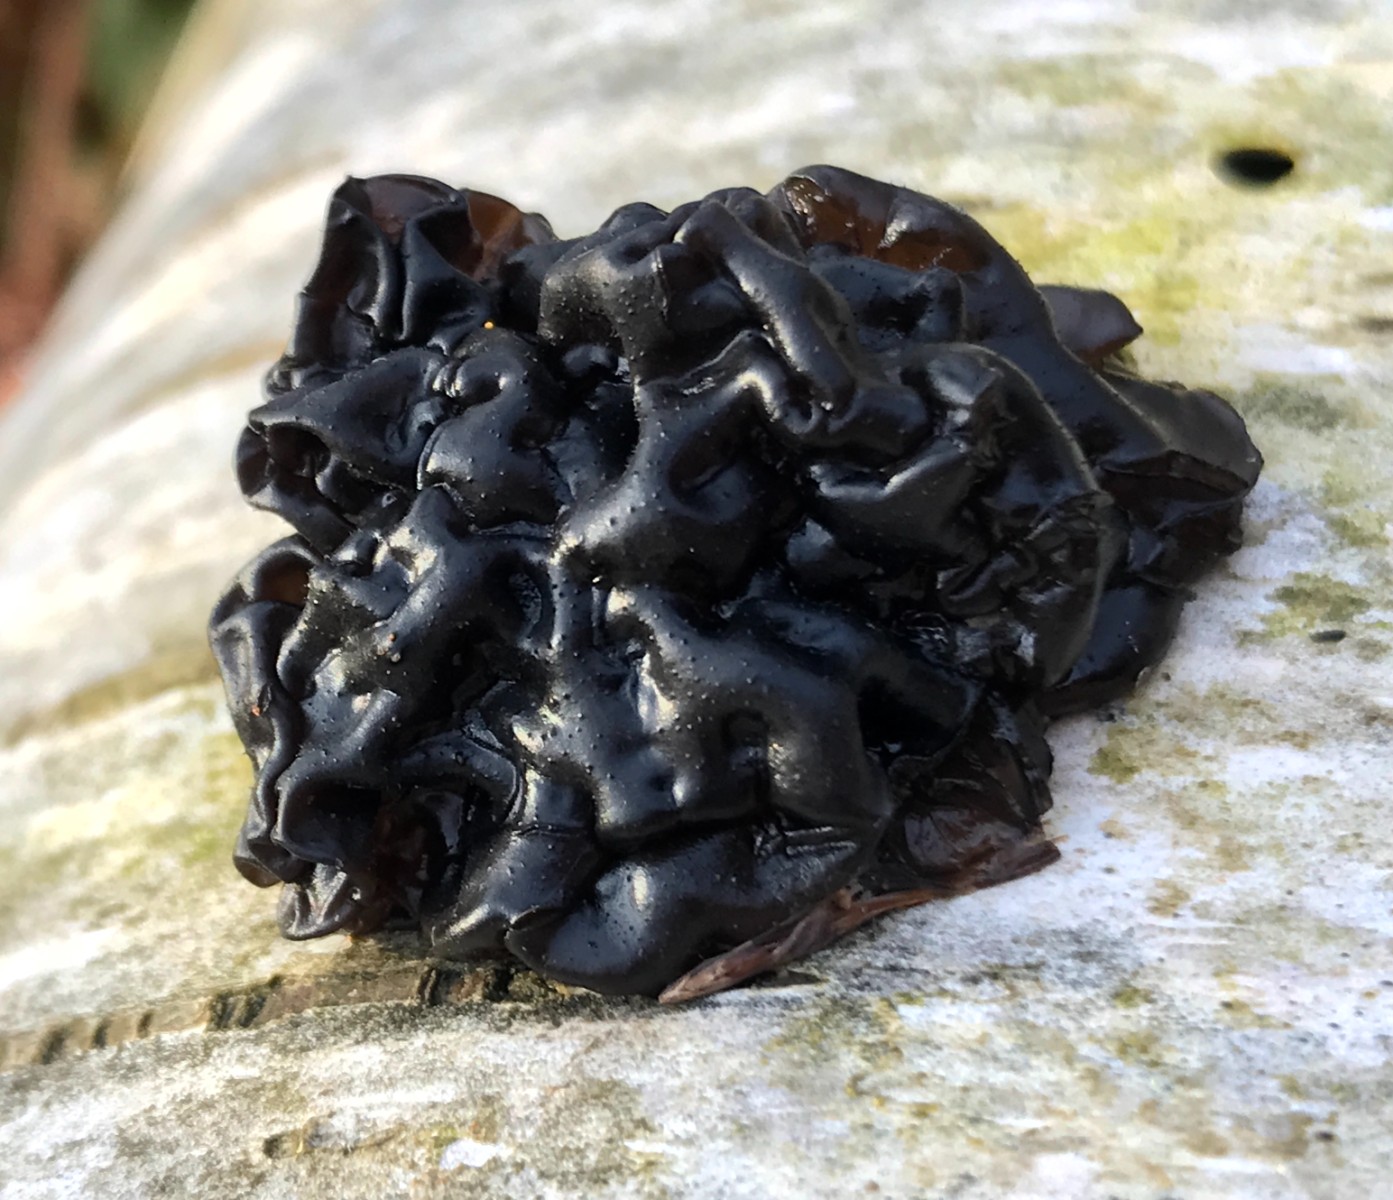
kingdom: Fungi
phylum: Basidiomycota
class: Agaricomycetes
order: Auriculariales
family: Auriculariaceae
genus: Exidia
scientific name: Exidia nigricans
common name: almindelig bævretop
